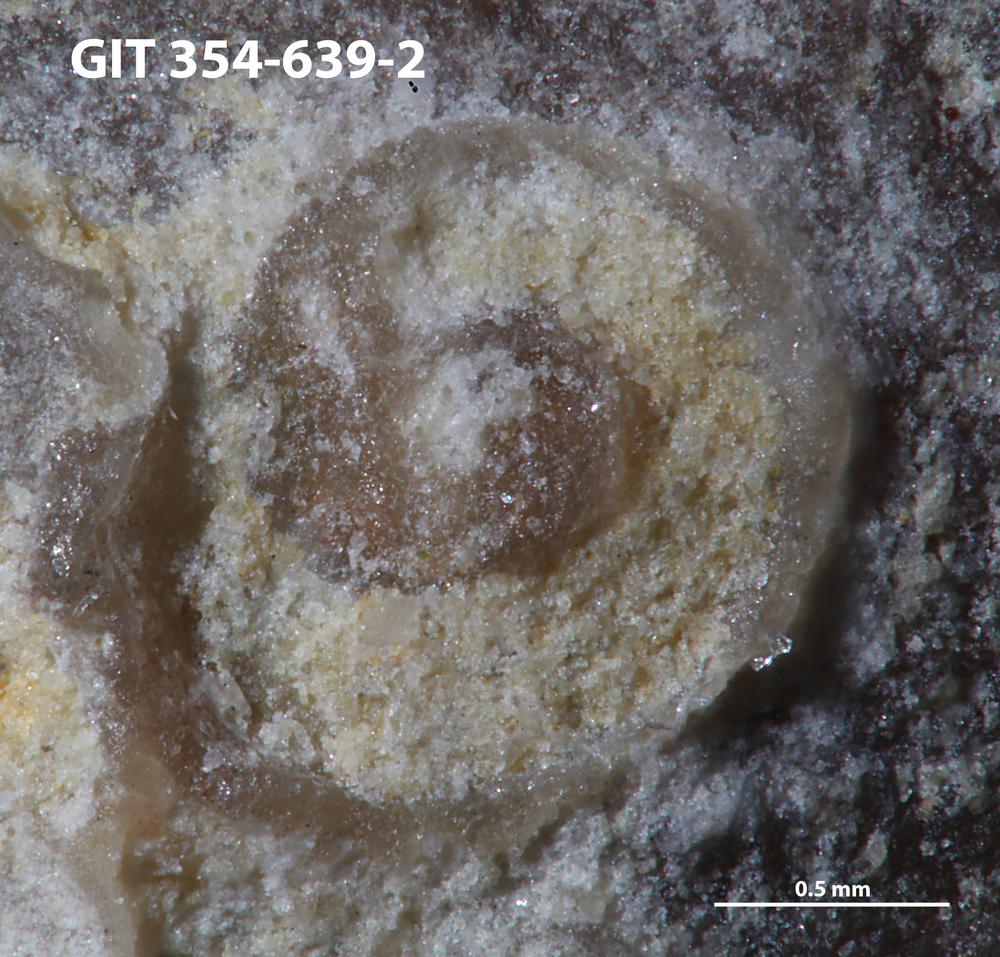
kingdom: Animalia
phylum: Mollusca
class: Cricoconarida
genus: Palaeoconchus
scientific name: Palaeoconchus
